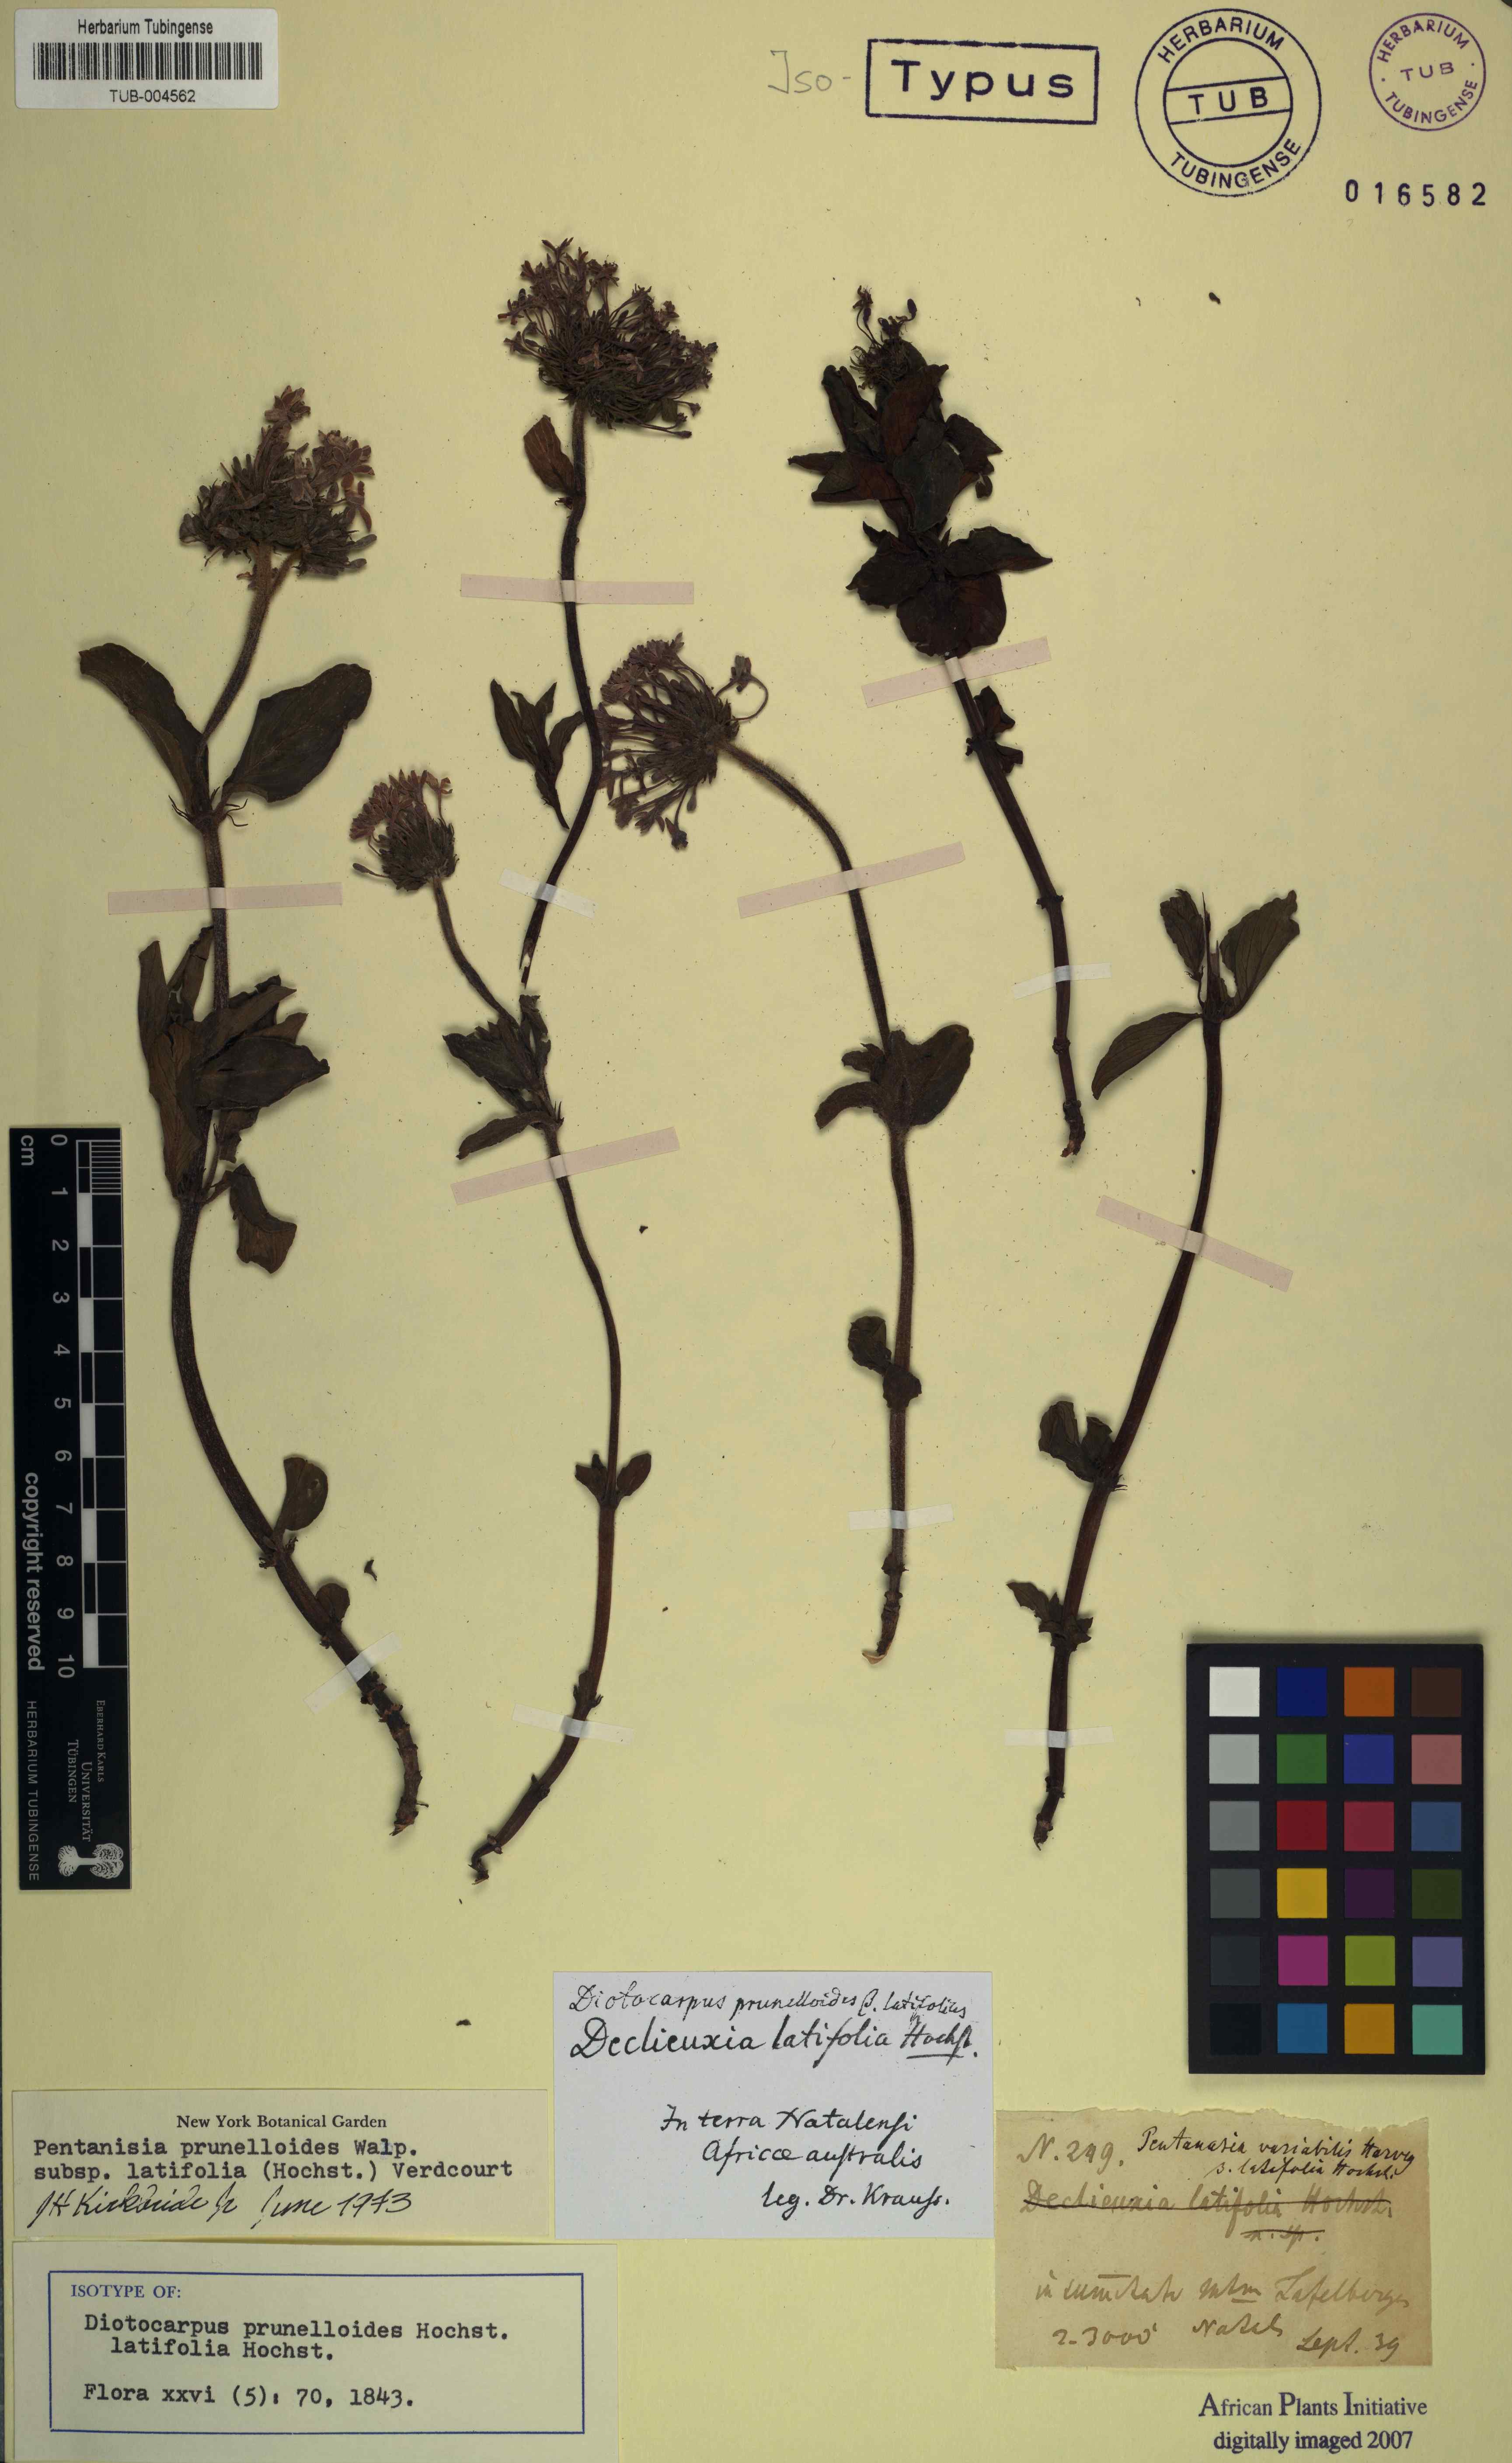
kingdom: Plantae
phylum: Tracheophyta
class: Magnoliopsida
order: Gentianales
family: Rubiaceae
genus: Pentanisia
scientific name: Pentanisia prunelloides
